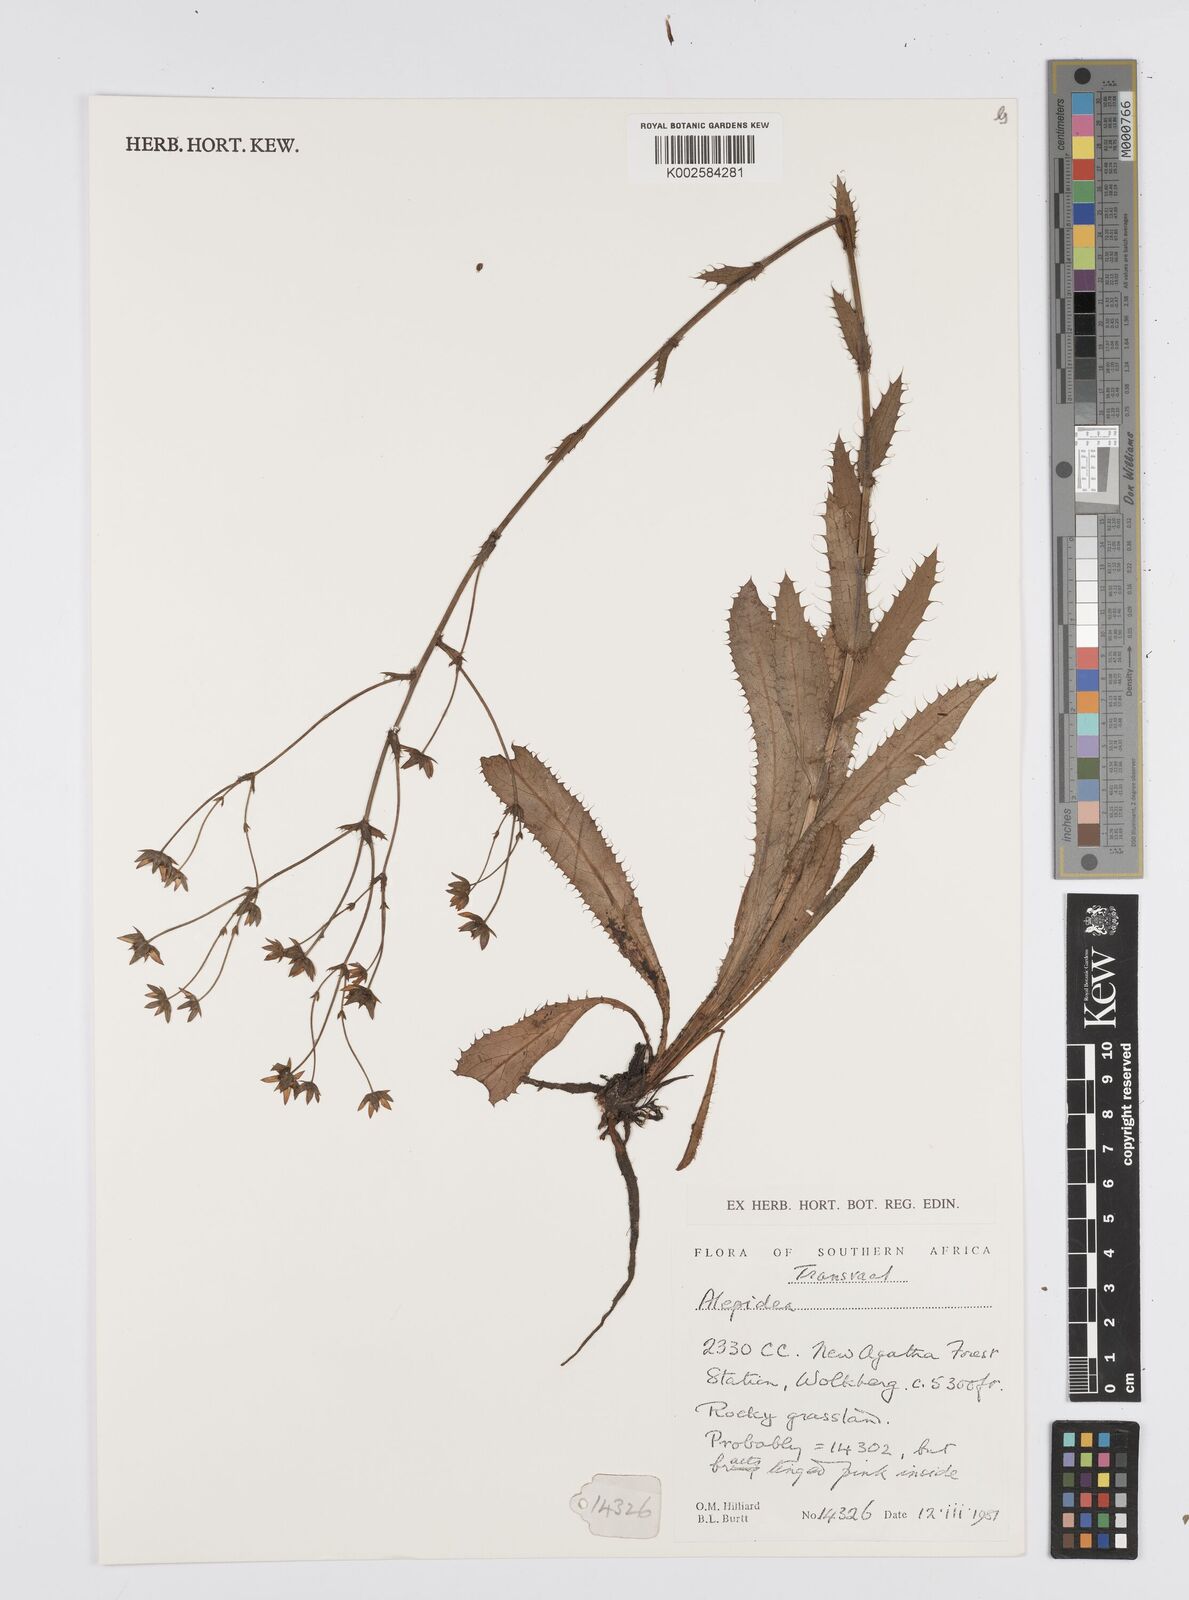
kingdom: Plantae
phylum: Tracheophyta
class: Magnoliopsida
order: Apiales
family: Apiaceae
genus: Alepidea
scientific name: Alepidea
